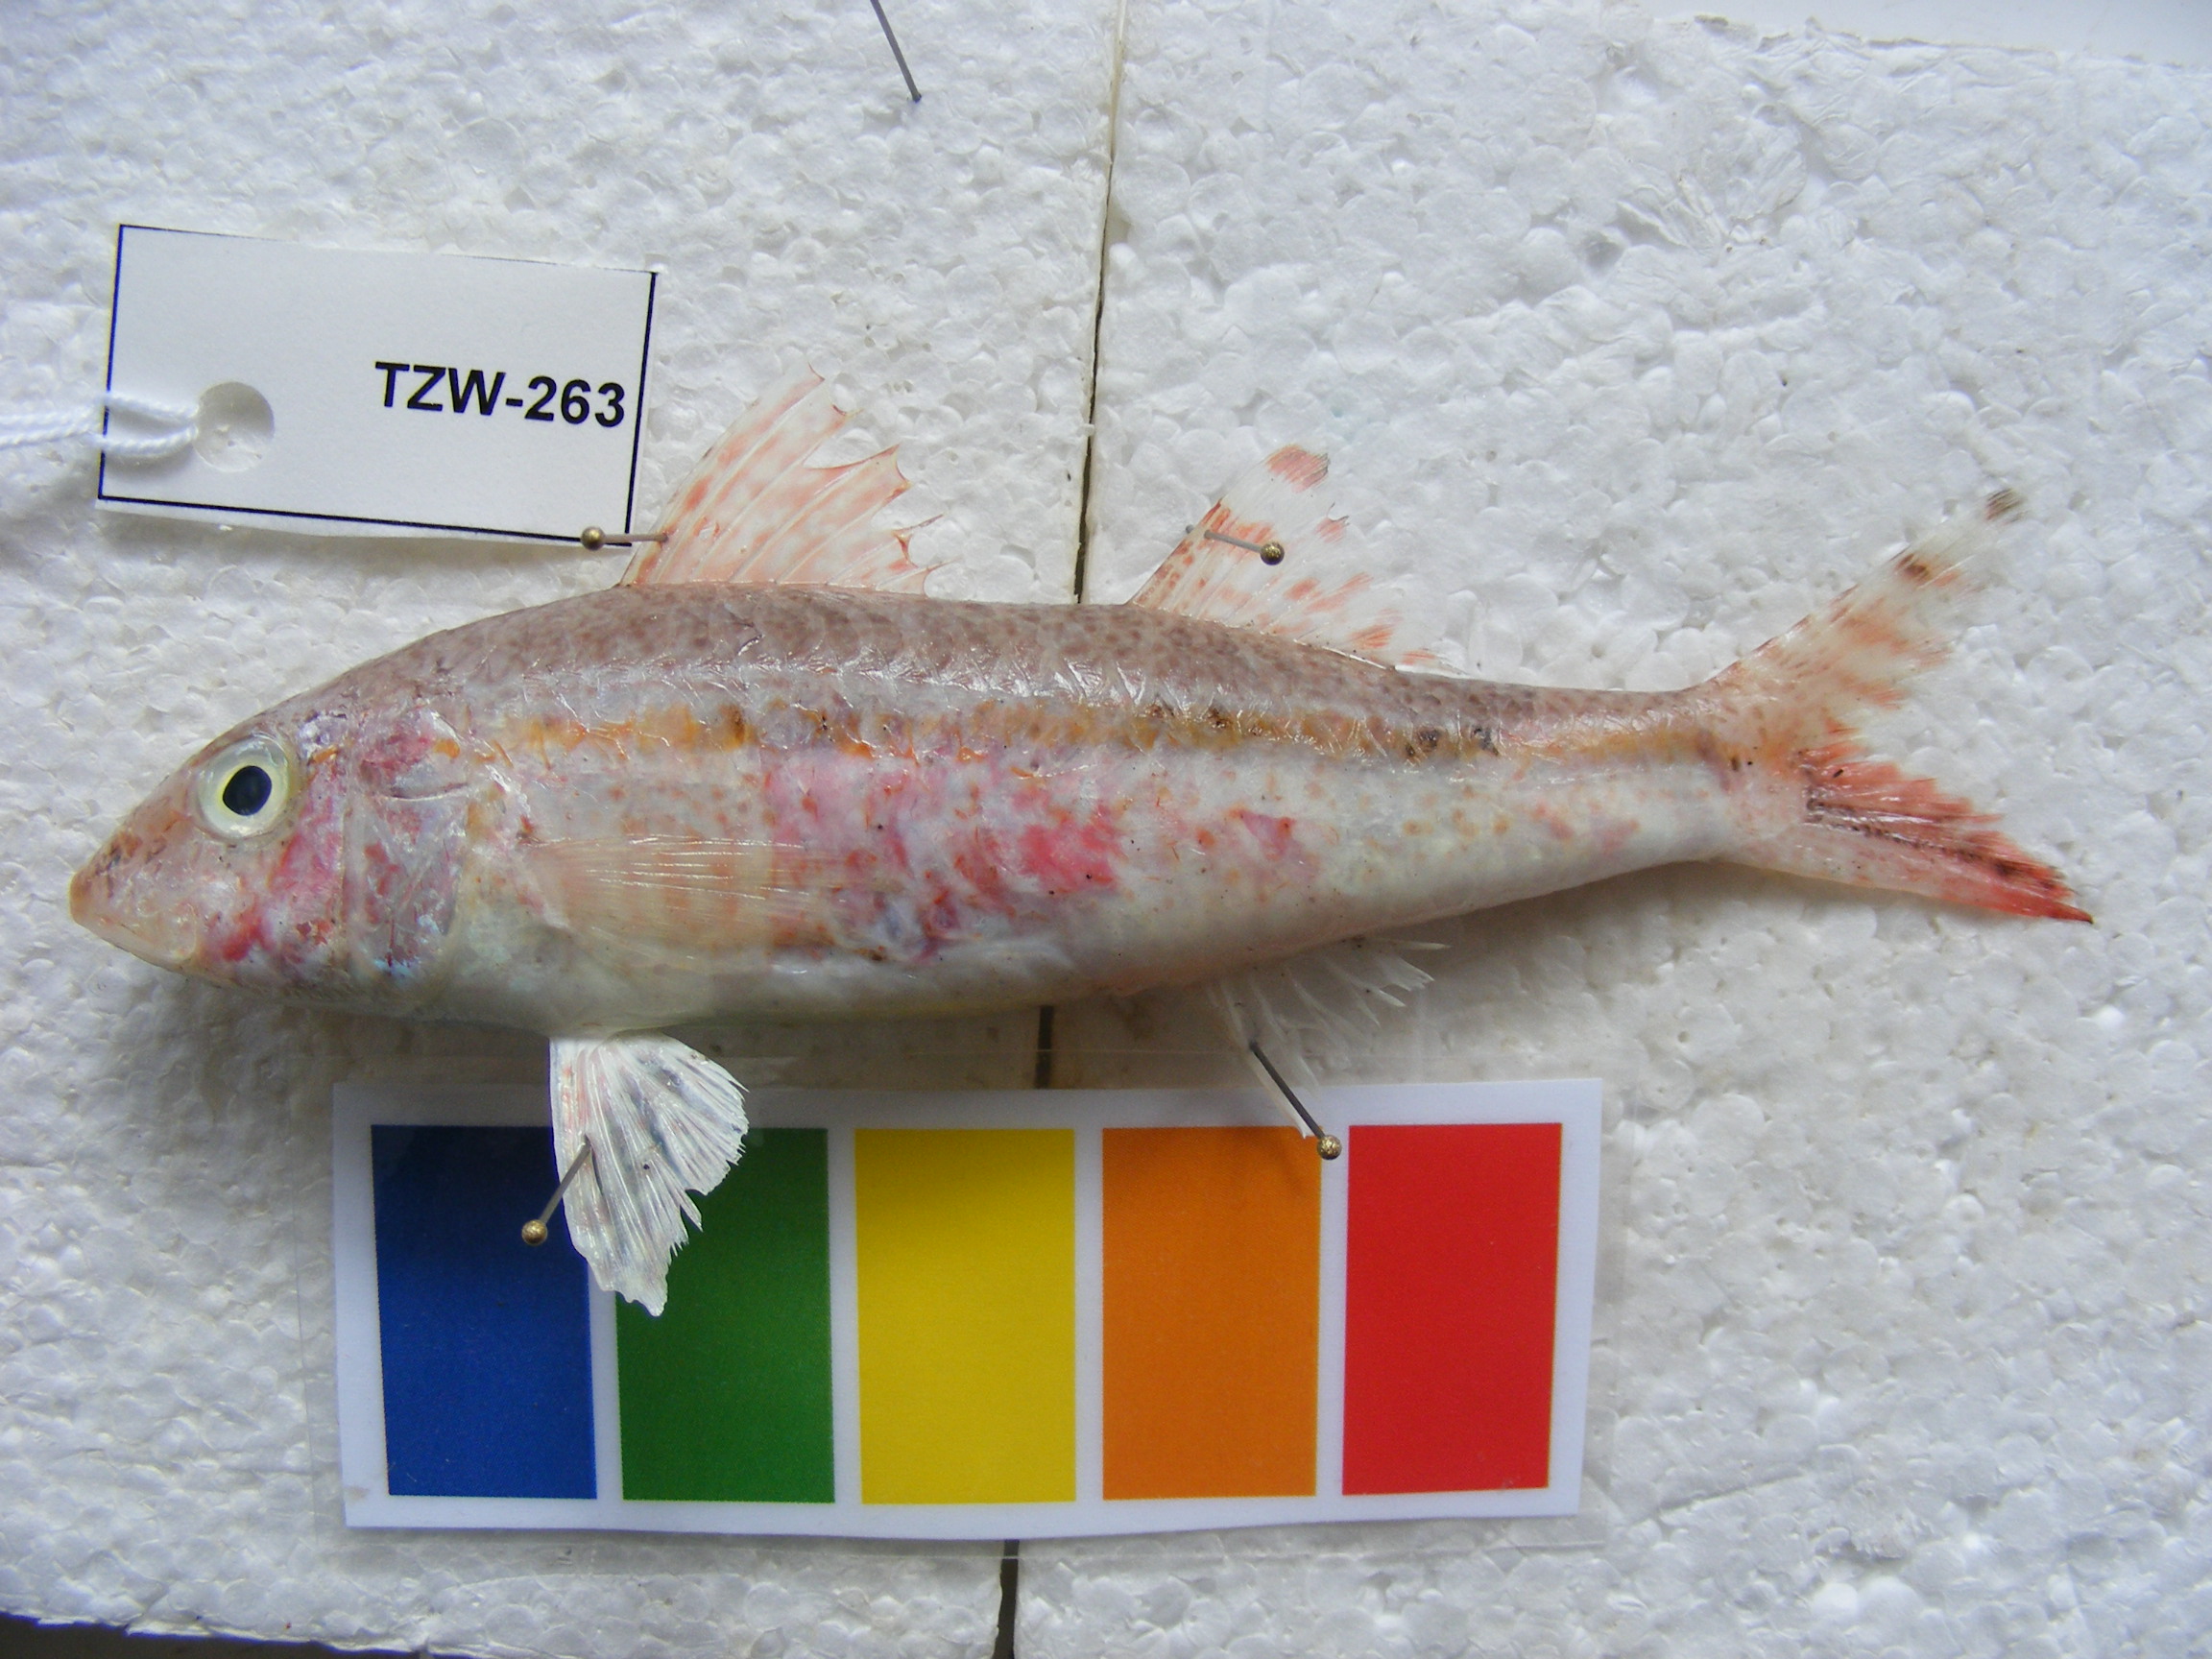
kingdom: Animalia
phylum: Chordata
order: Perciformes
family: Mullidae
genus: Upeneus
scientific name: Upeneus margarethae
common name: Margaretha's goatfish
